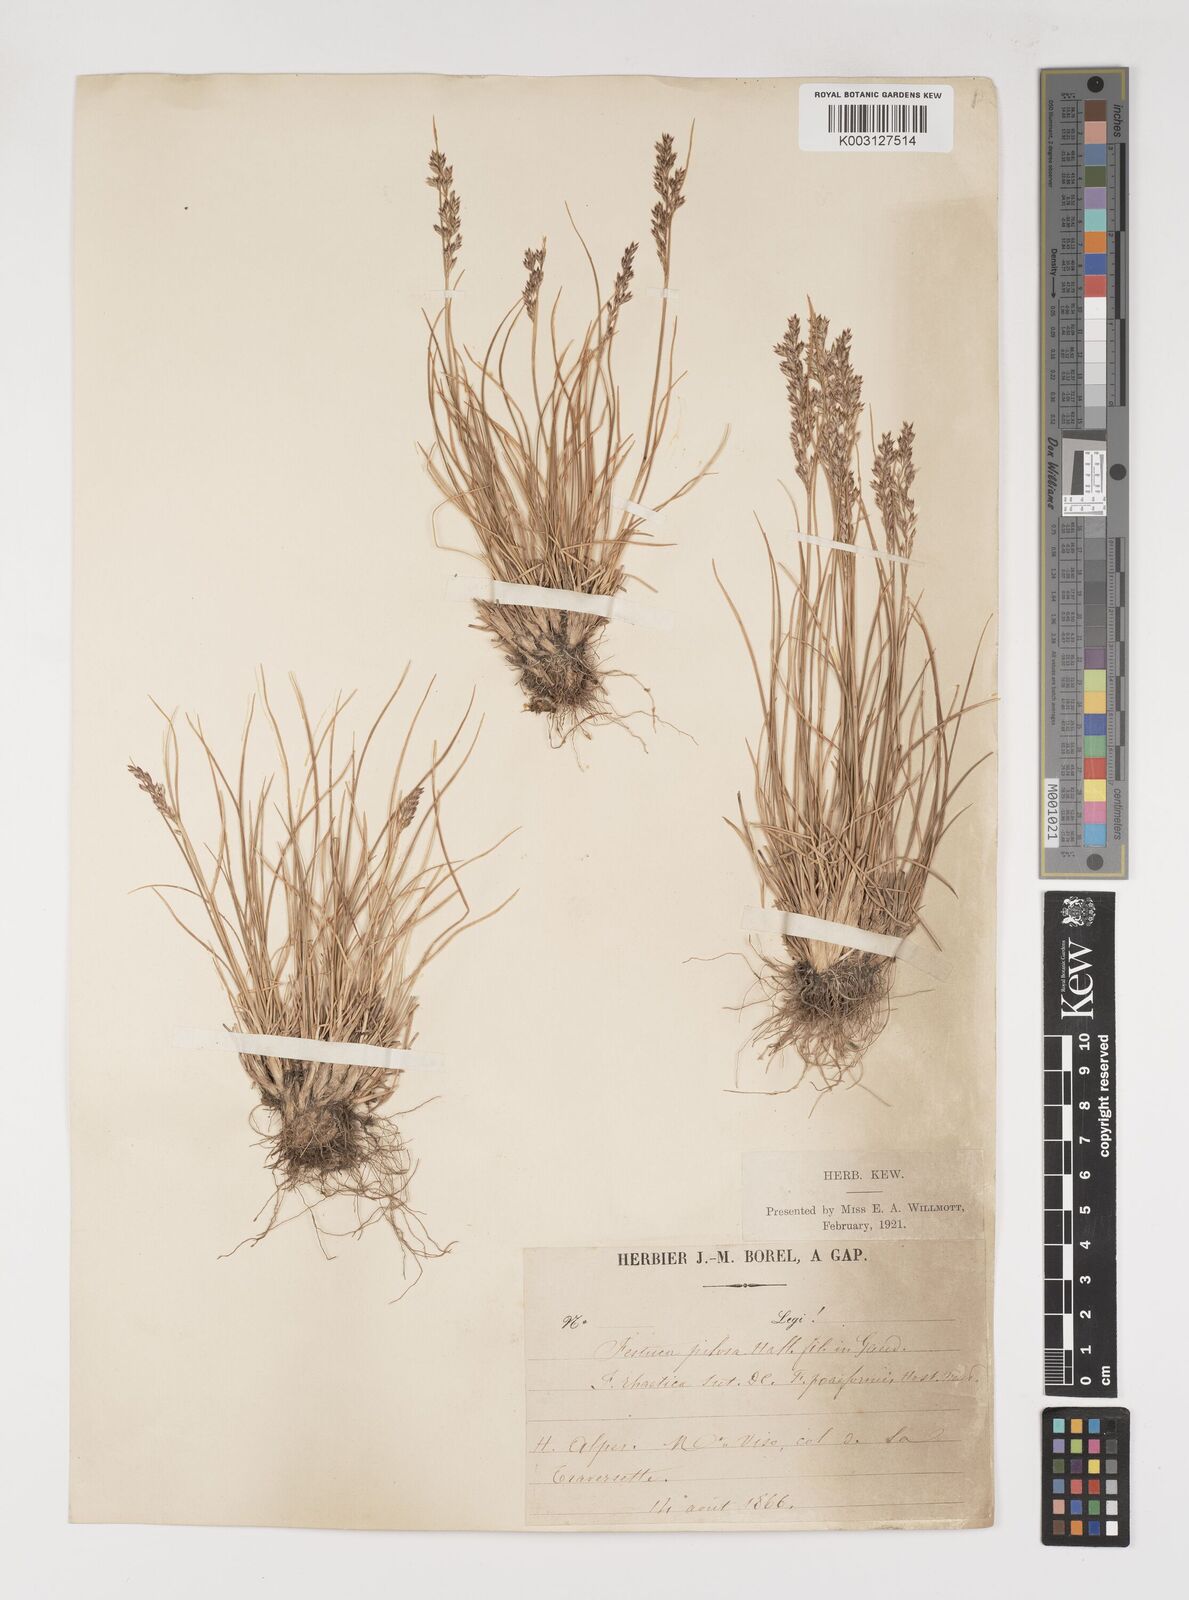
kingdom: Plantae
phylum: Tracheophyta
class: Liliopsida
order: Poales
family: Poaceae
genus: Bellardiochloa
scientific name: Bellardiochloa variegata
